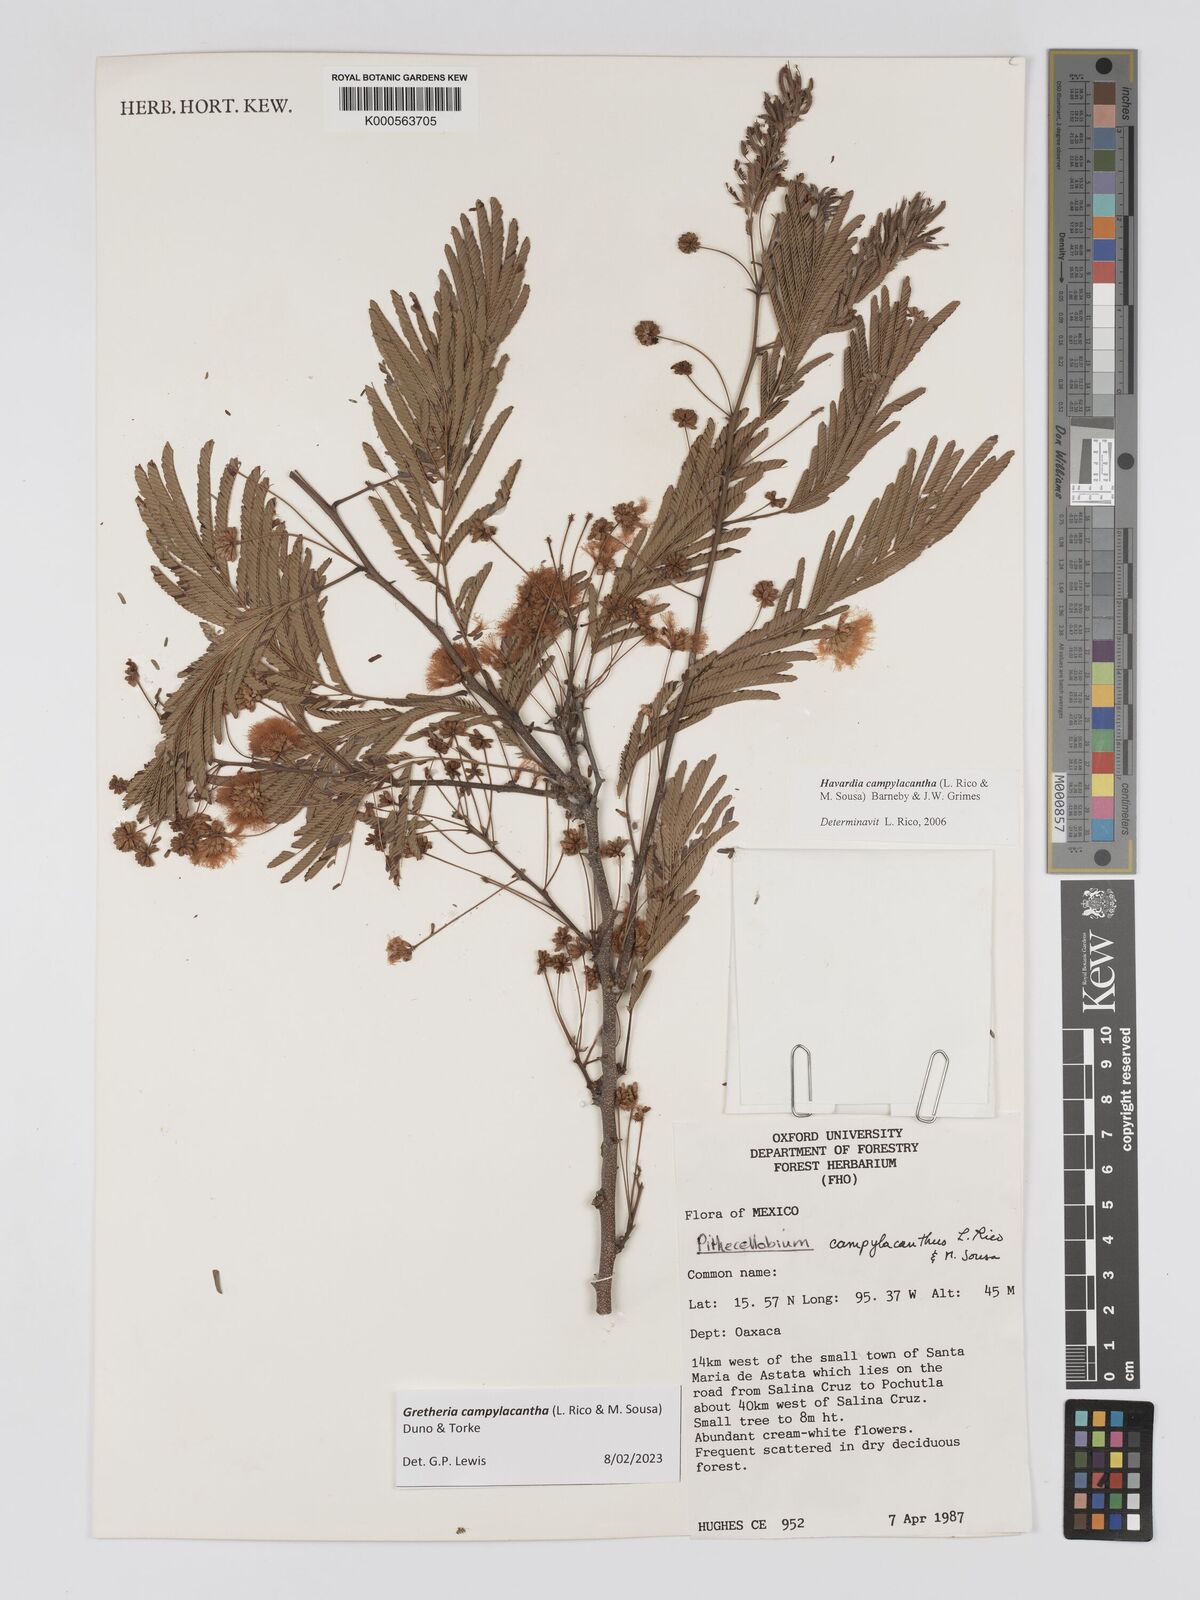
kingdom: Plantae
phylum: Tracheophyta
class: Magnoliopsida
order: Fabales
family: Fabaceae
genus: Havardia
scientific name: Havardia campylacantha
